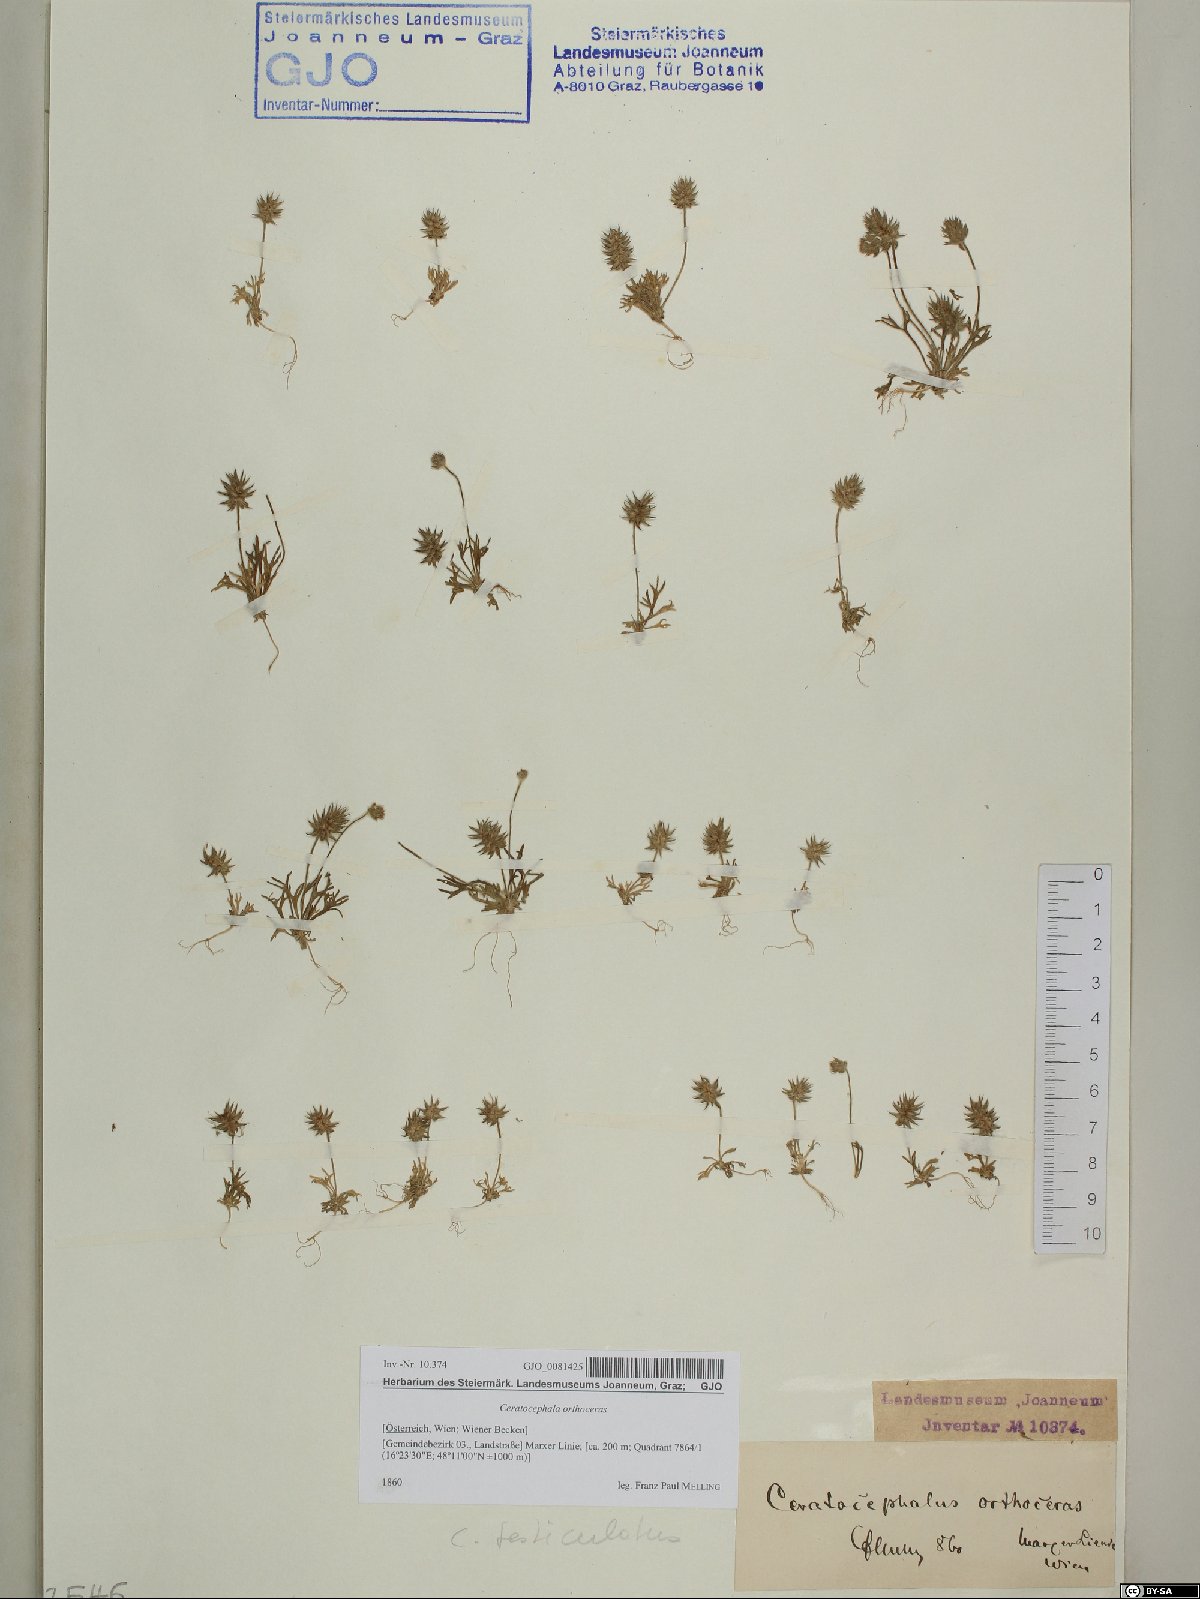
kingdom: Plantae
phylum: Tracheophyta
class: Magnoliopsida
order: Ranunculales
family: Ranunculaceae
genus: Ceratocephala
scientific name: Ceratocephala orthoceras
